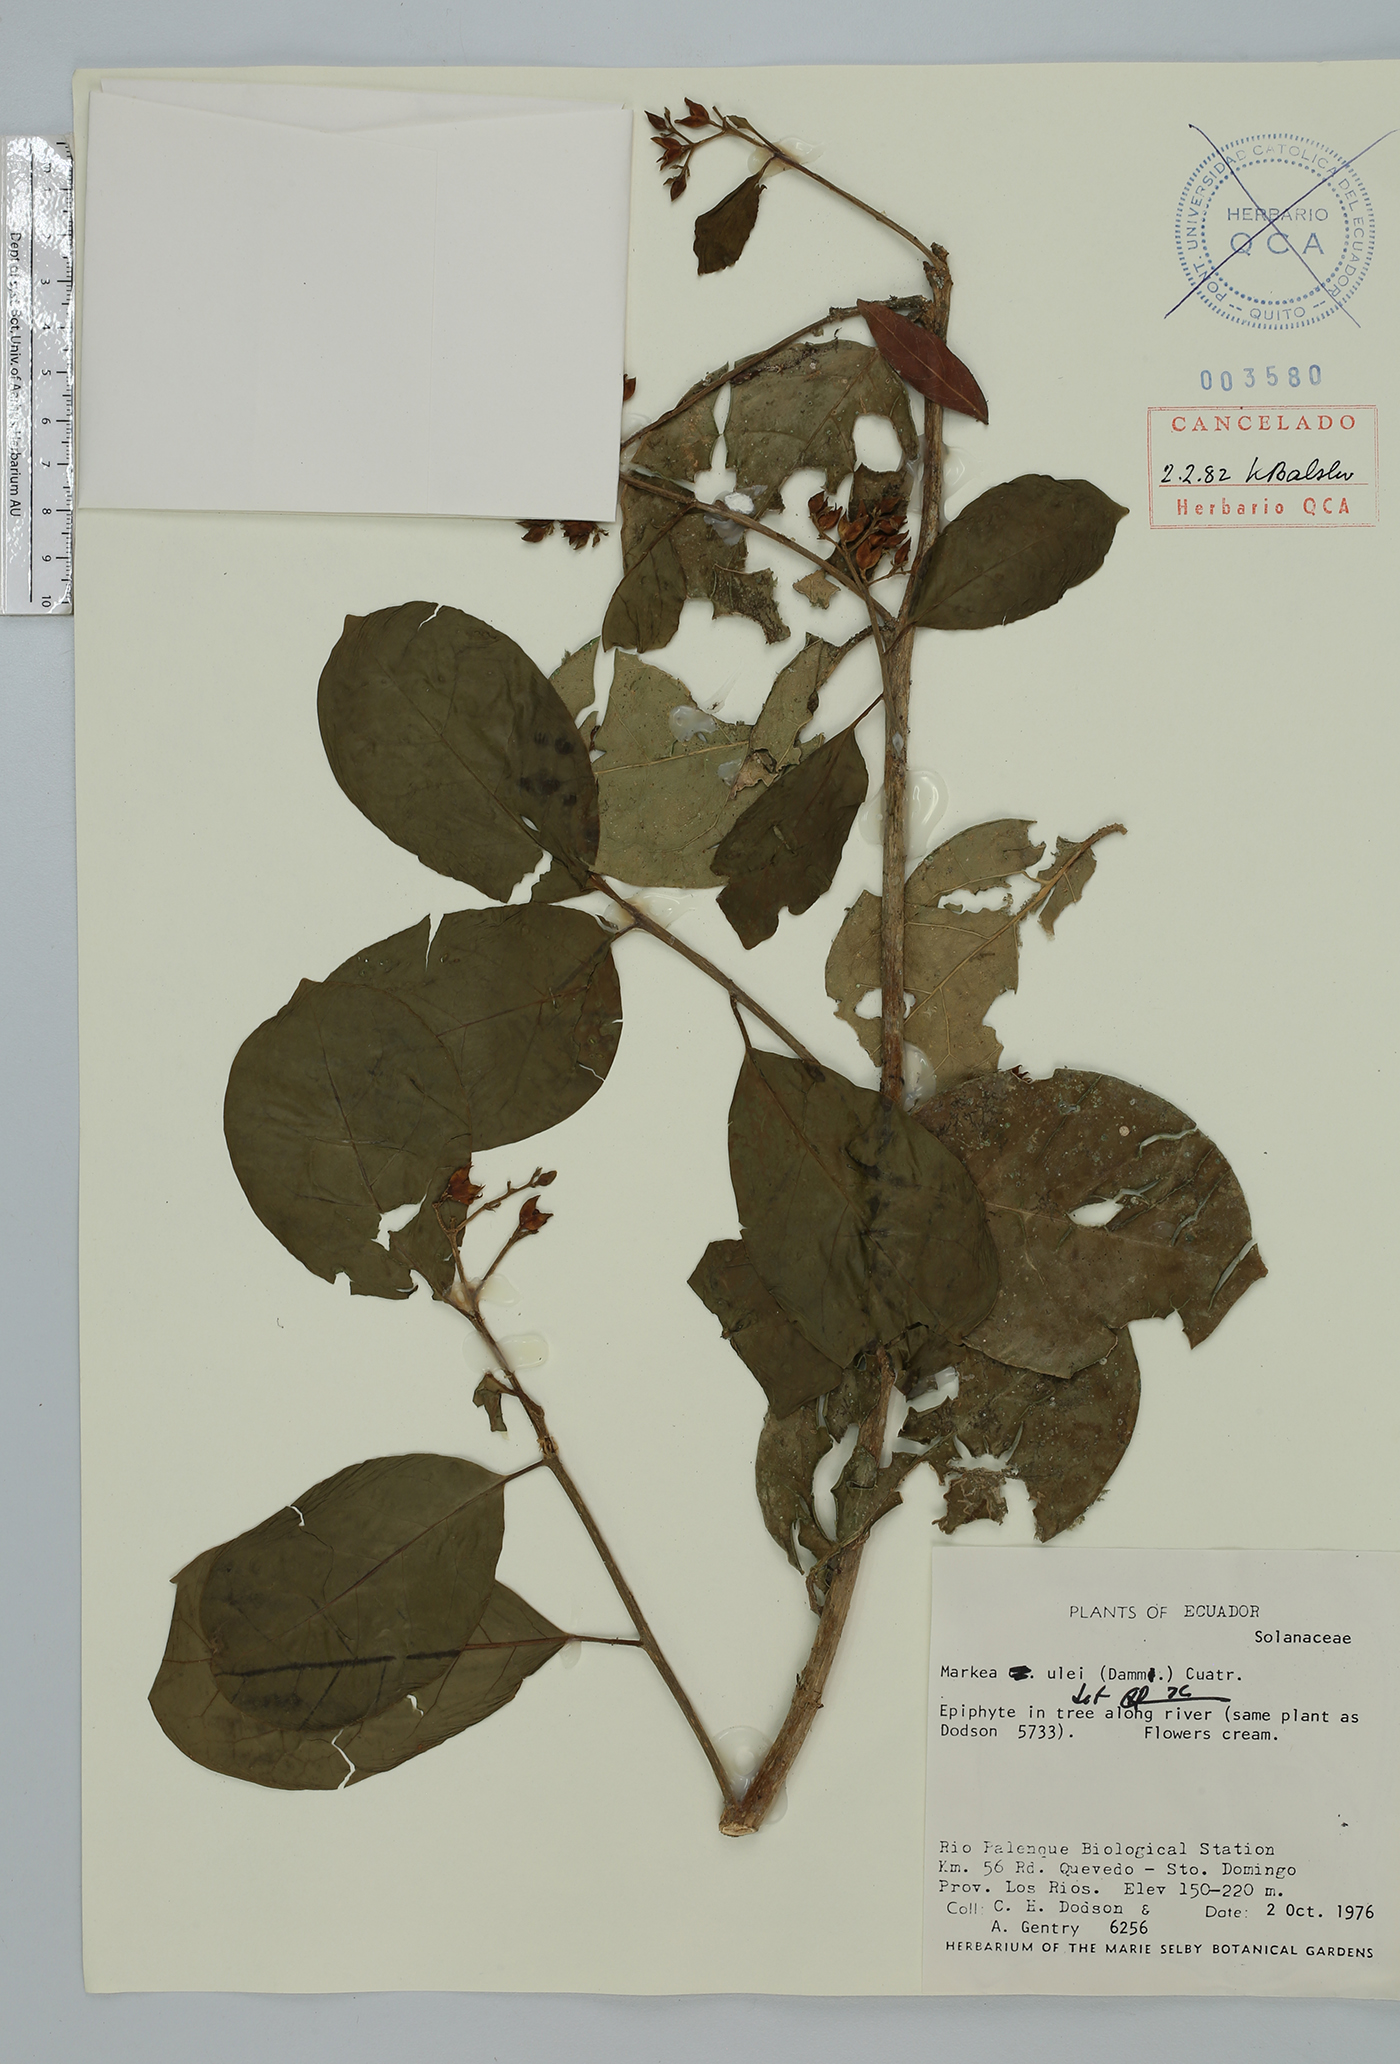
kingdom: Plantae
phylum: Tracheophyta
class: Magnoliopsida
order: Solanales
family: Solanaceae
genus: Markea
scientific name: Markea pavonii
